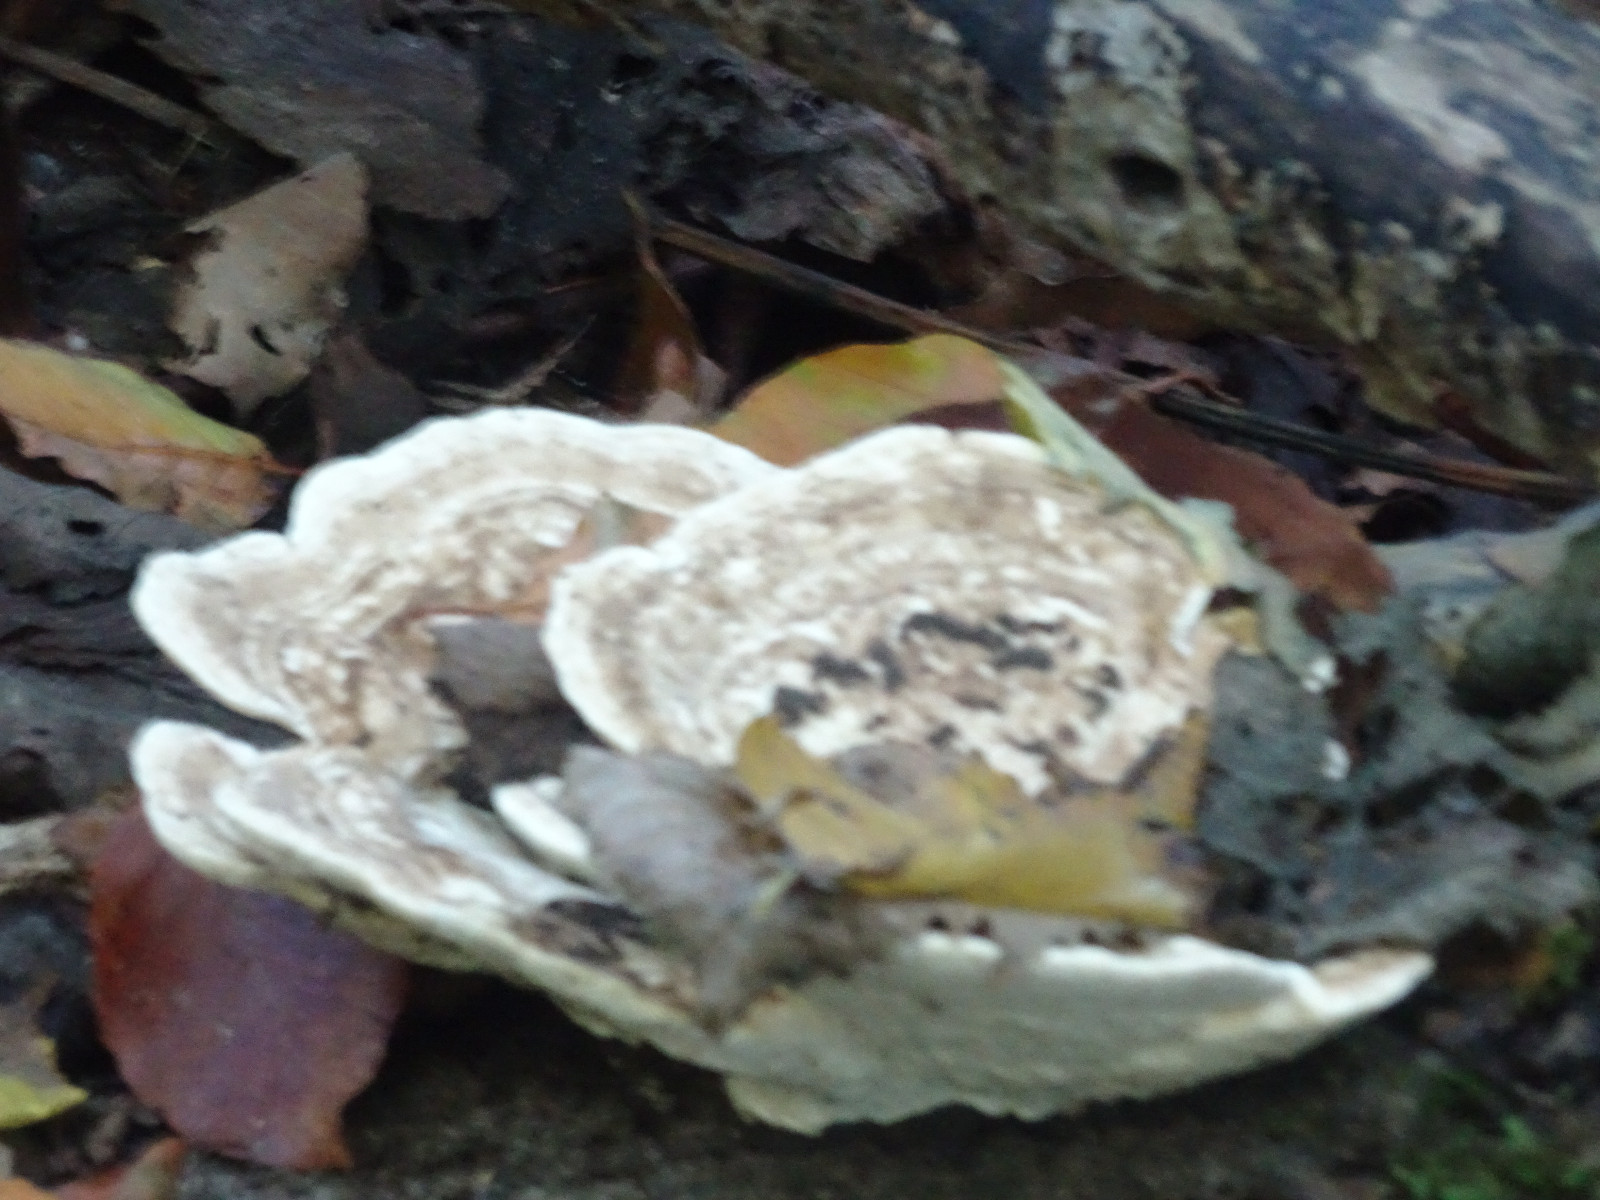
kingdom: Fungi
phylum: Basidiomycota
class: Agaricomycetes
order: Polyporales
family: Polyporaceae
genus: Trametes
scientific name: Trametes gibbosa
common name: puklet læderporesvamp
